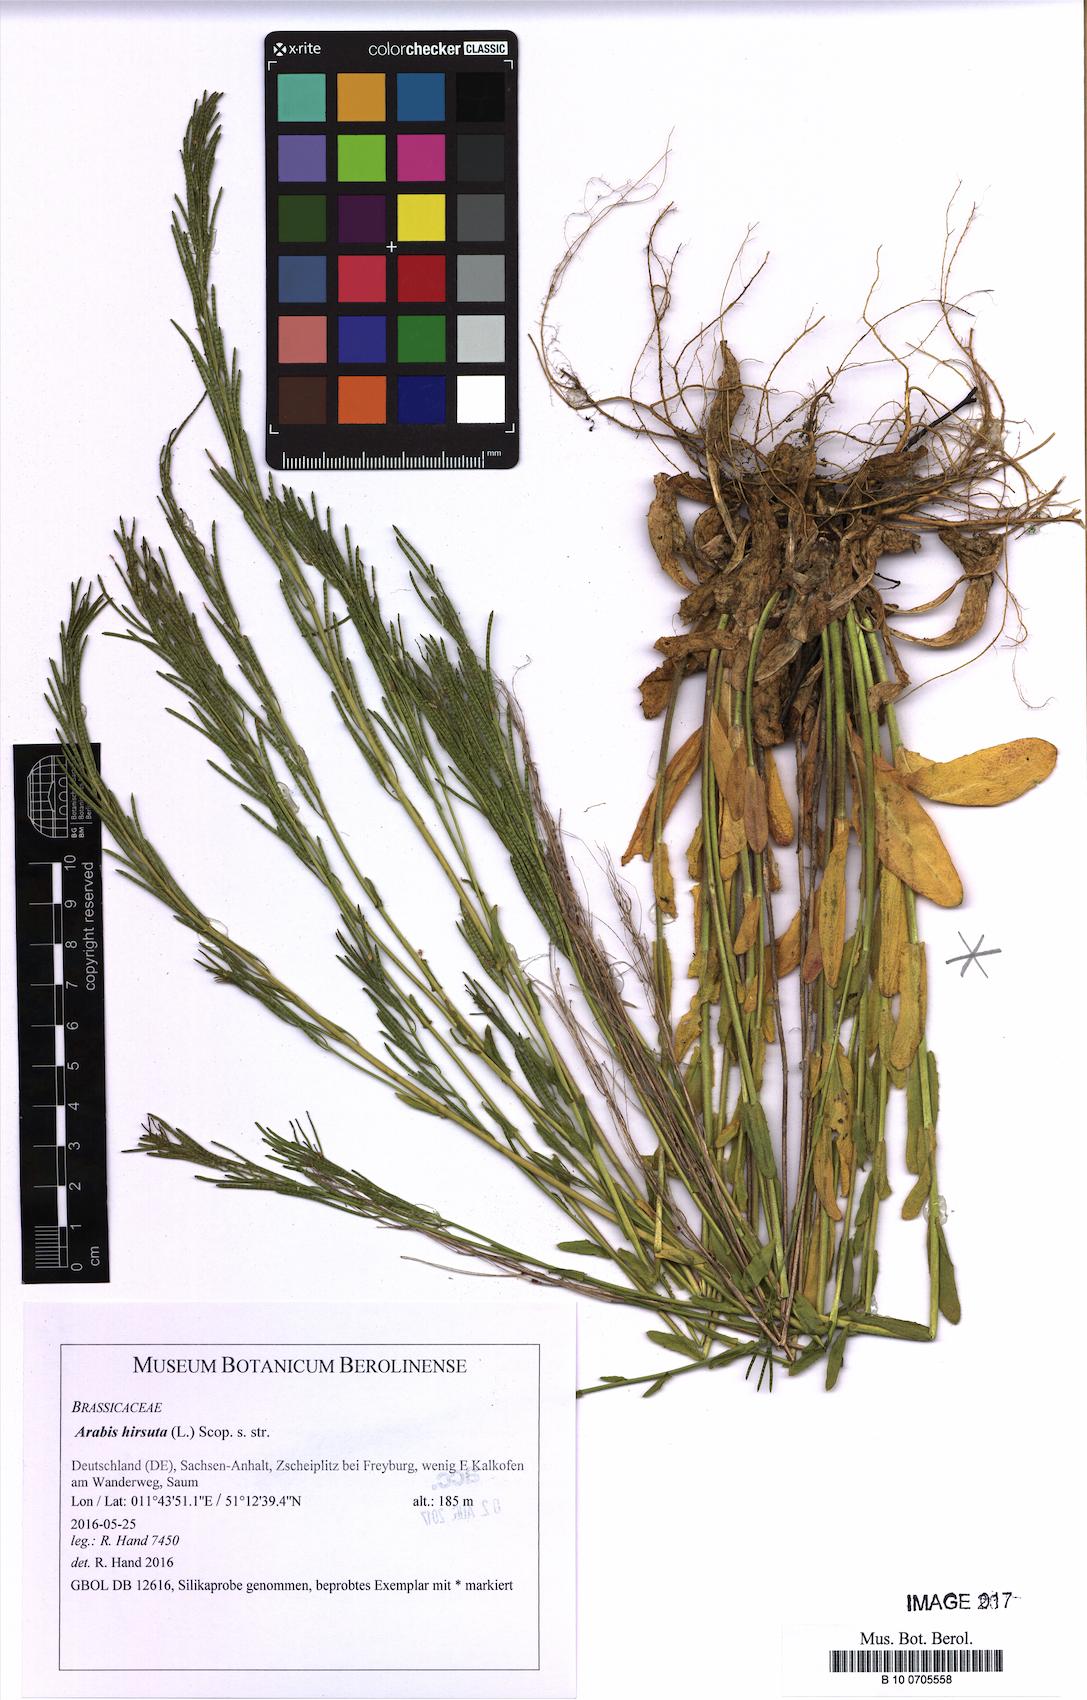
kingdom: Plantae
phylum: Tracheophyta
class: Magnoliopsida
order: Brassicales
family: Brassicaceae
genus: Arabis
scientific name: Arabis hirsuta
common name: Hairy rock-cress
